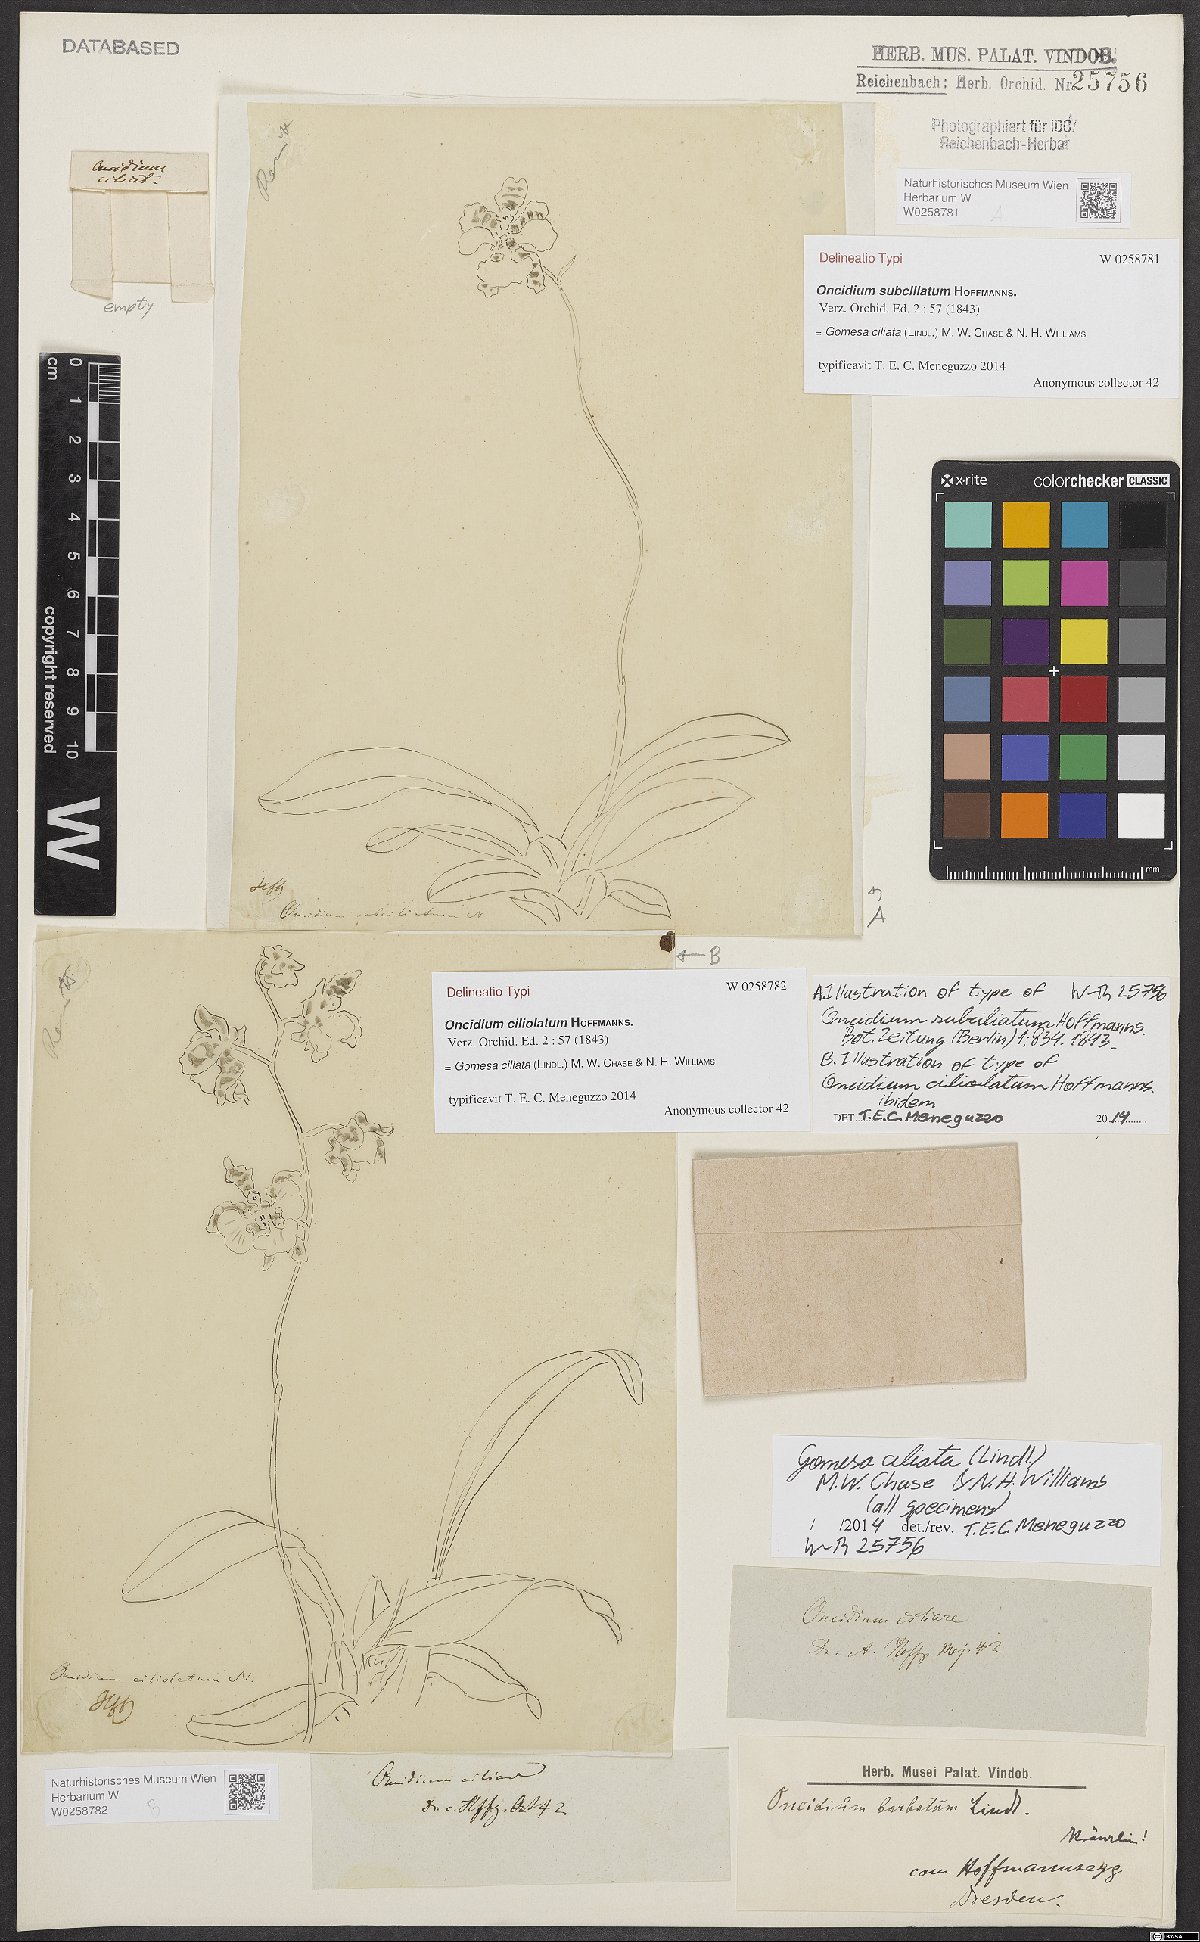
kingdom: Plantae
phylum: Tracheophyta
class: Liliopsida
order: Asparagales
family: Orchidaceae
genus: Gomesa
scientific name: Gomesa ciliata
